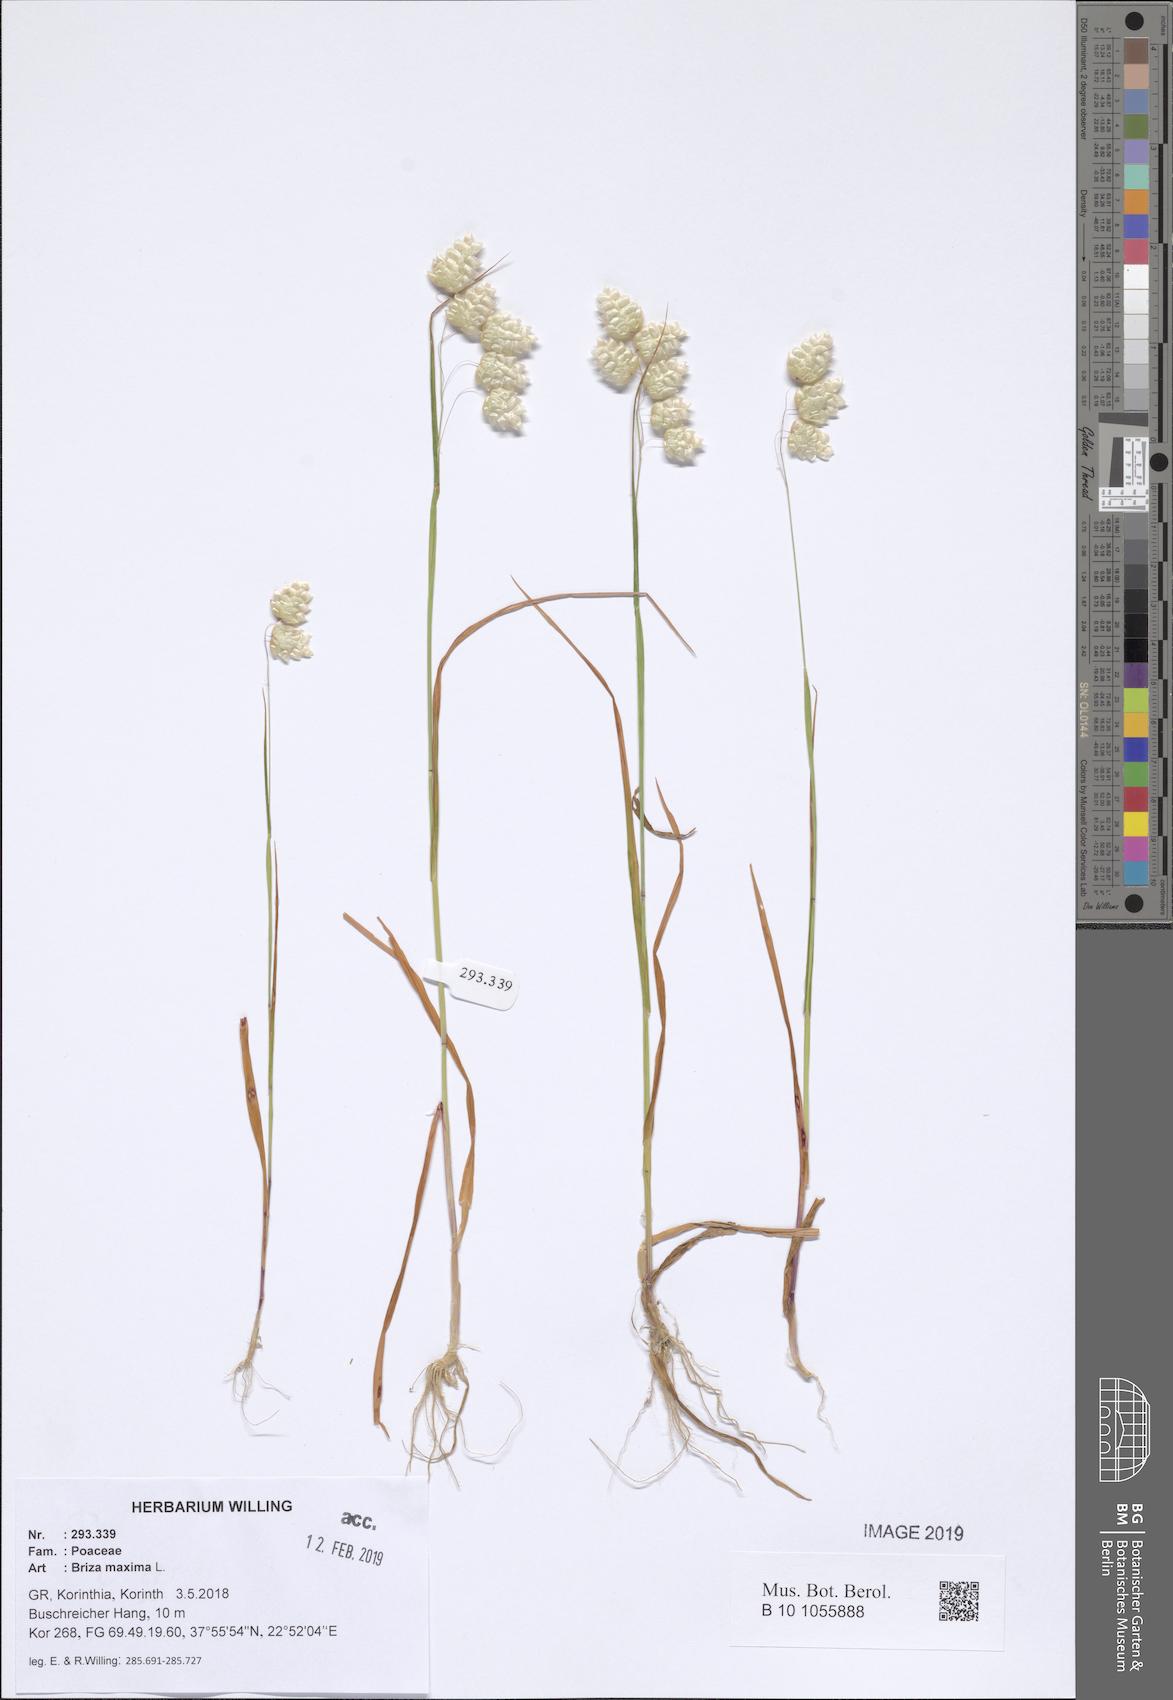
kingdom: Plantae
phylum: Tracheophyta
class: Liliopsida
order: Poales
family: Poaceae
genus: Briza
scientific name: Briza maxima
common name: Big quakinggrass
